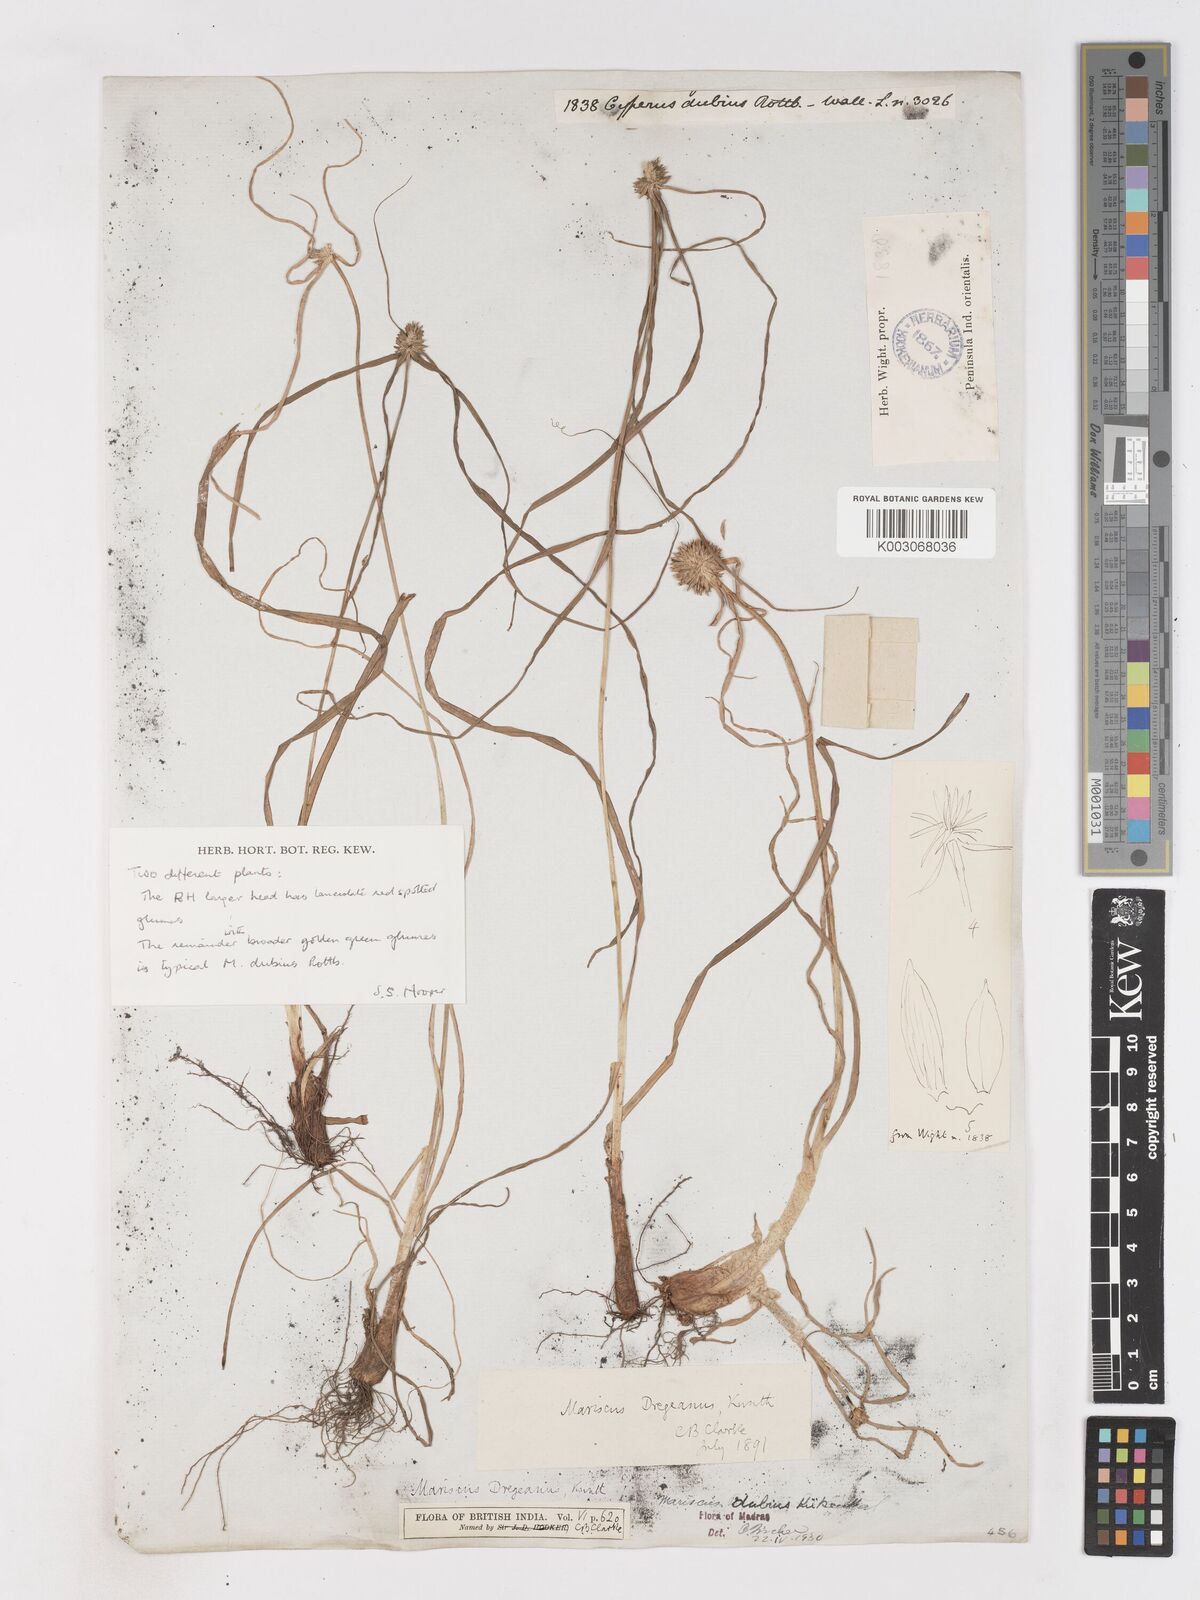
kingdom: Plantae
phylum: Tracheophyta
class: Liliopsida
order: Poales
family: Cyperaceae
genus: Cyperus
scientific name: Cyperus dubius
